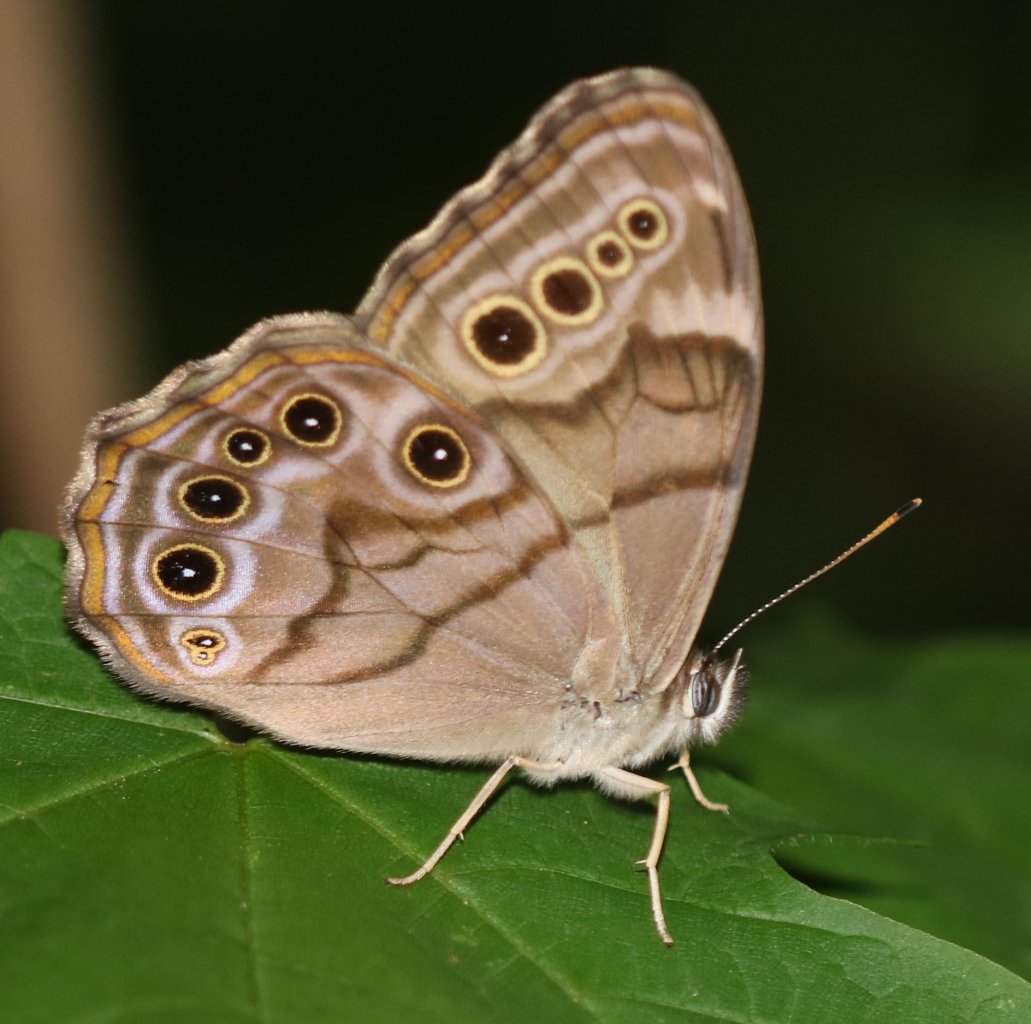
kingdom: Animalia
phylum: Arthropoda
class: Insecta
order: Lepidoptera
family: Nymphalidae
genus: Lethe
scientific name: Lethe anthedon
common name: Northern Pearly-Eye
